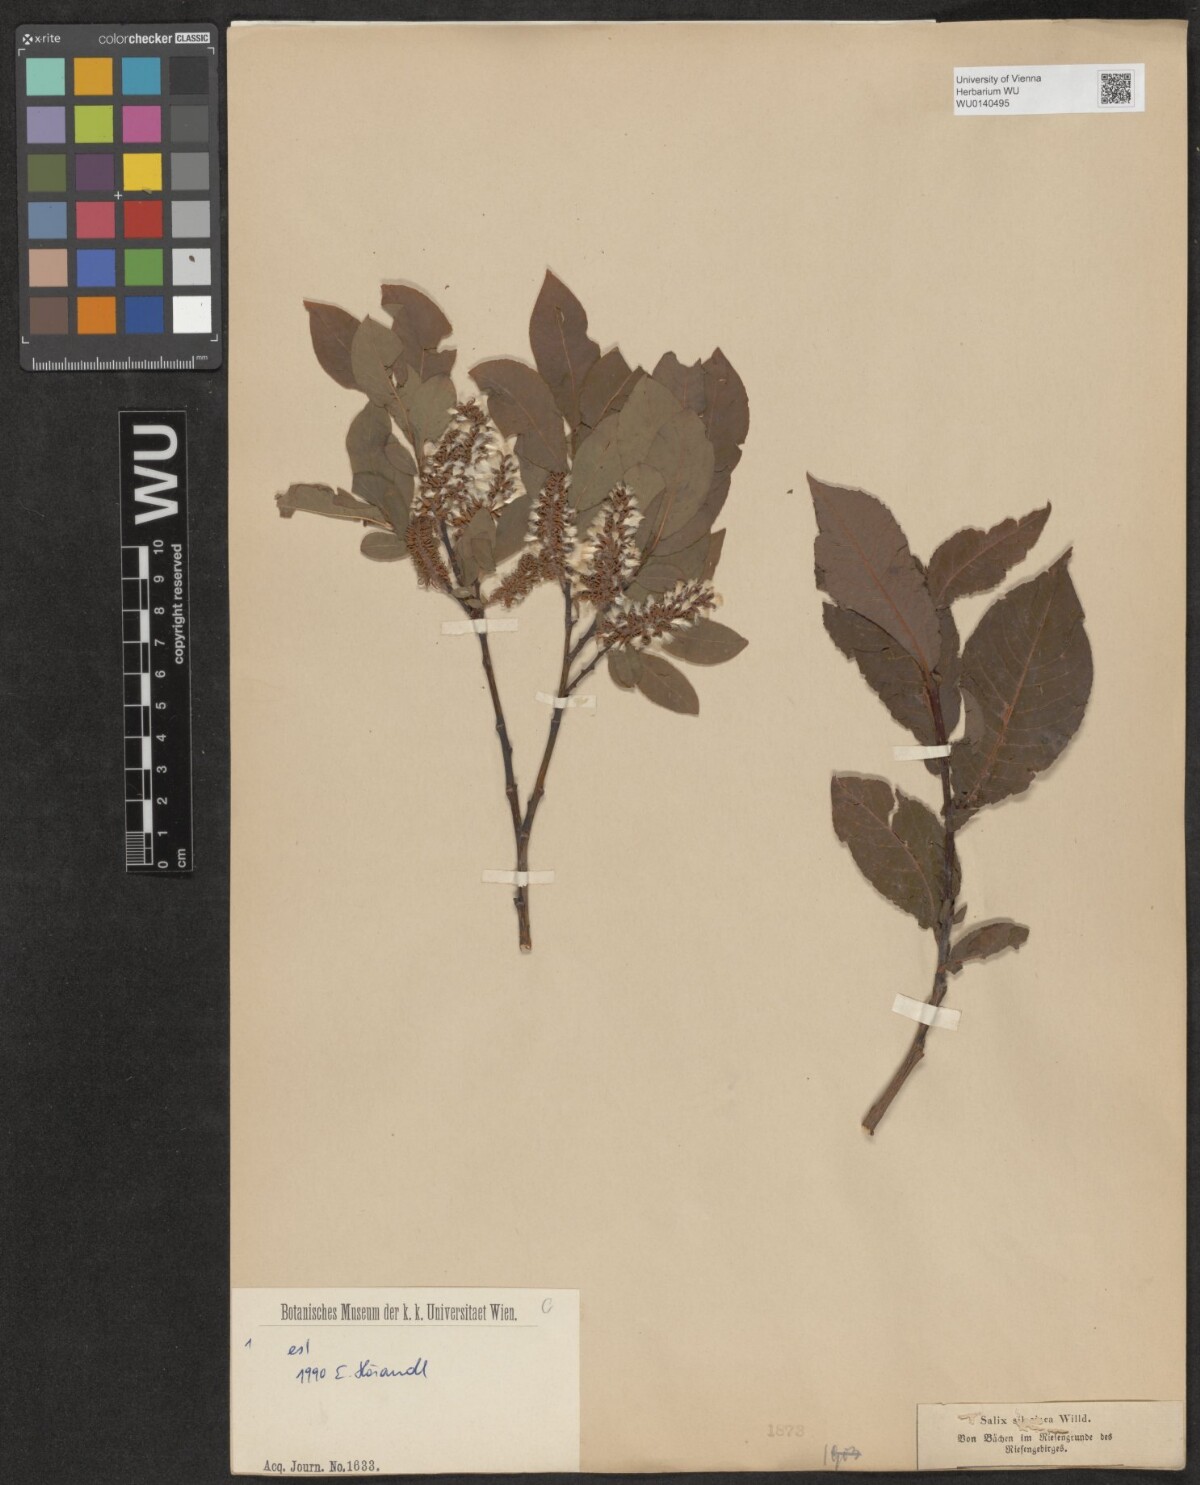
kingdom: Plantae
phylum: Tracheophyta
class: Magnoliopsida
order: Malpighiales
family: Salicaceae
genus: Salix
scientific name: Salix silesiaca
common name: Silesian willow
